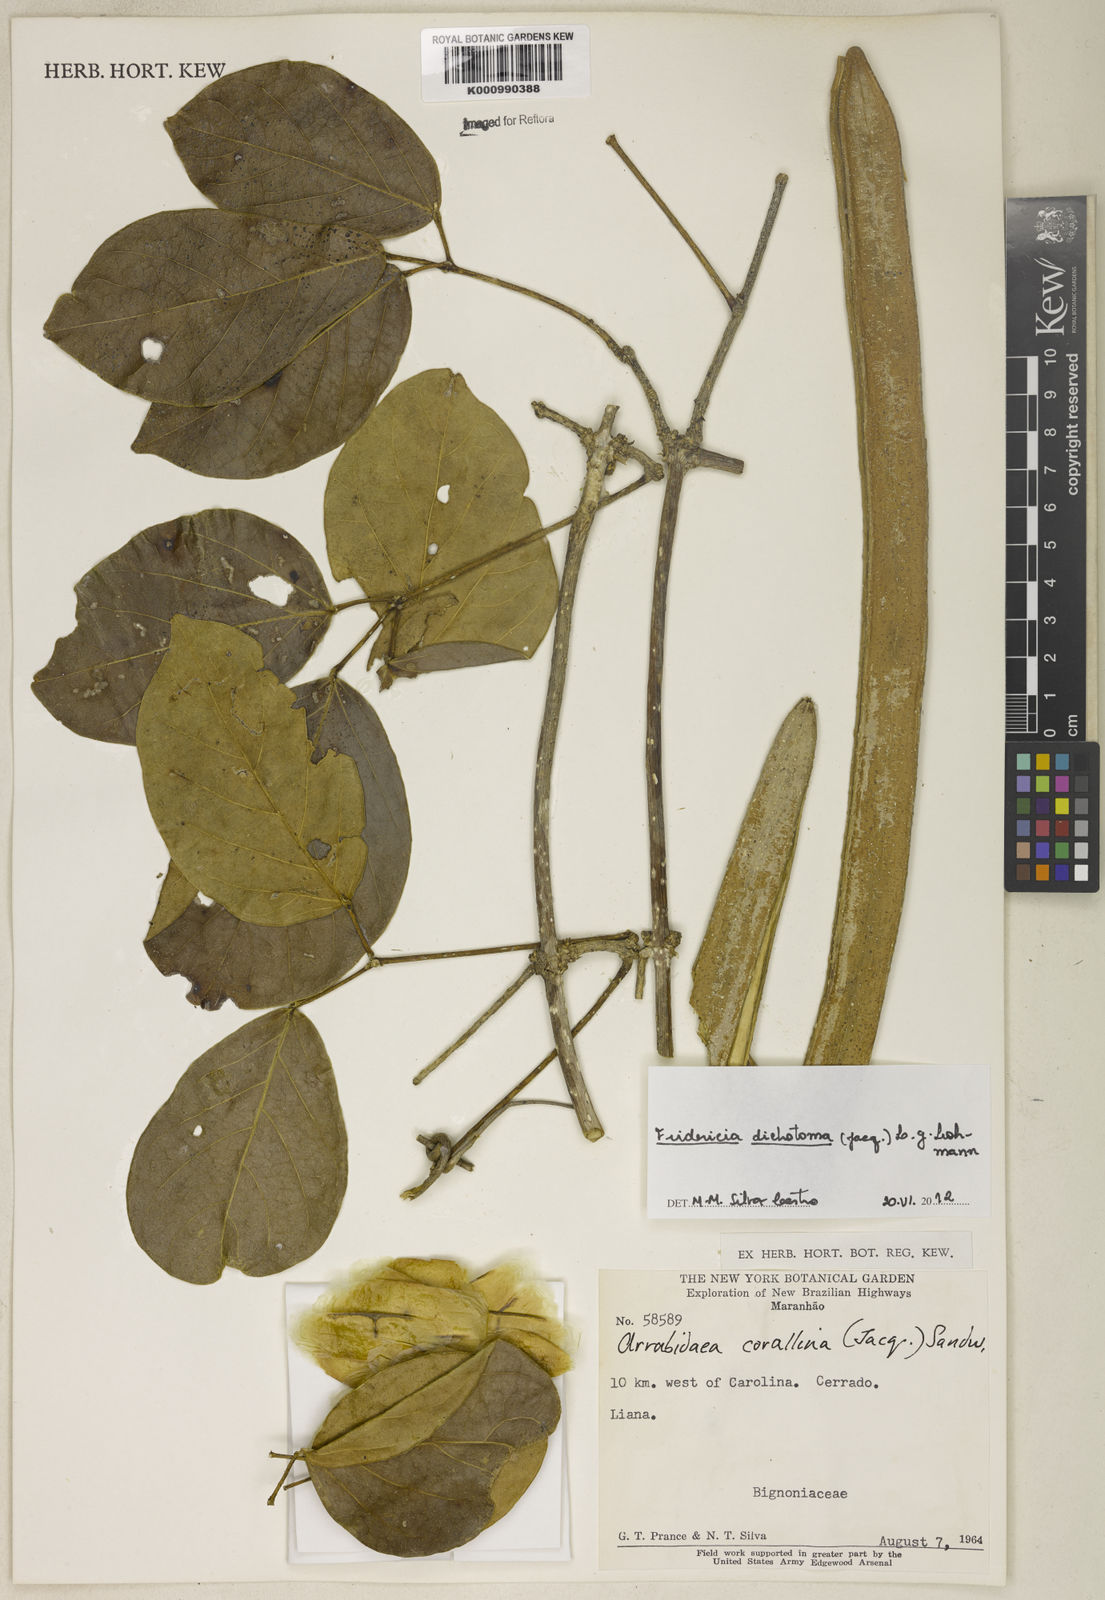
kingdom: Plantae
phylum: Tracheophyta
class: Magnoliopsida
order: Lamiales
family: Bignoniaceae
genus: Tanaecium
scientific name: Tanaecium dichotomum
